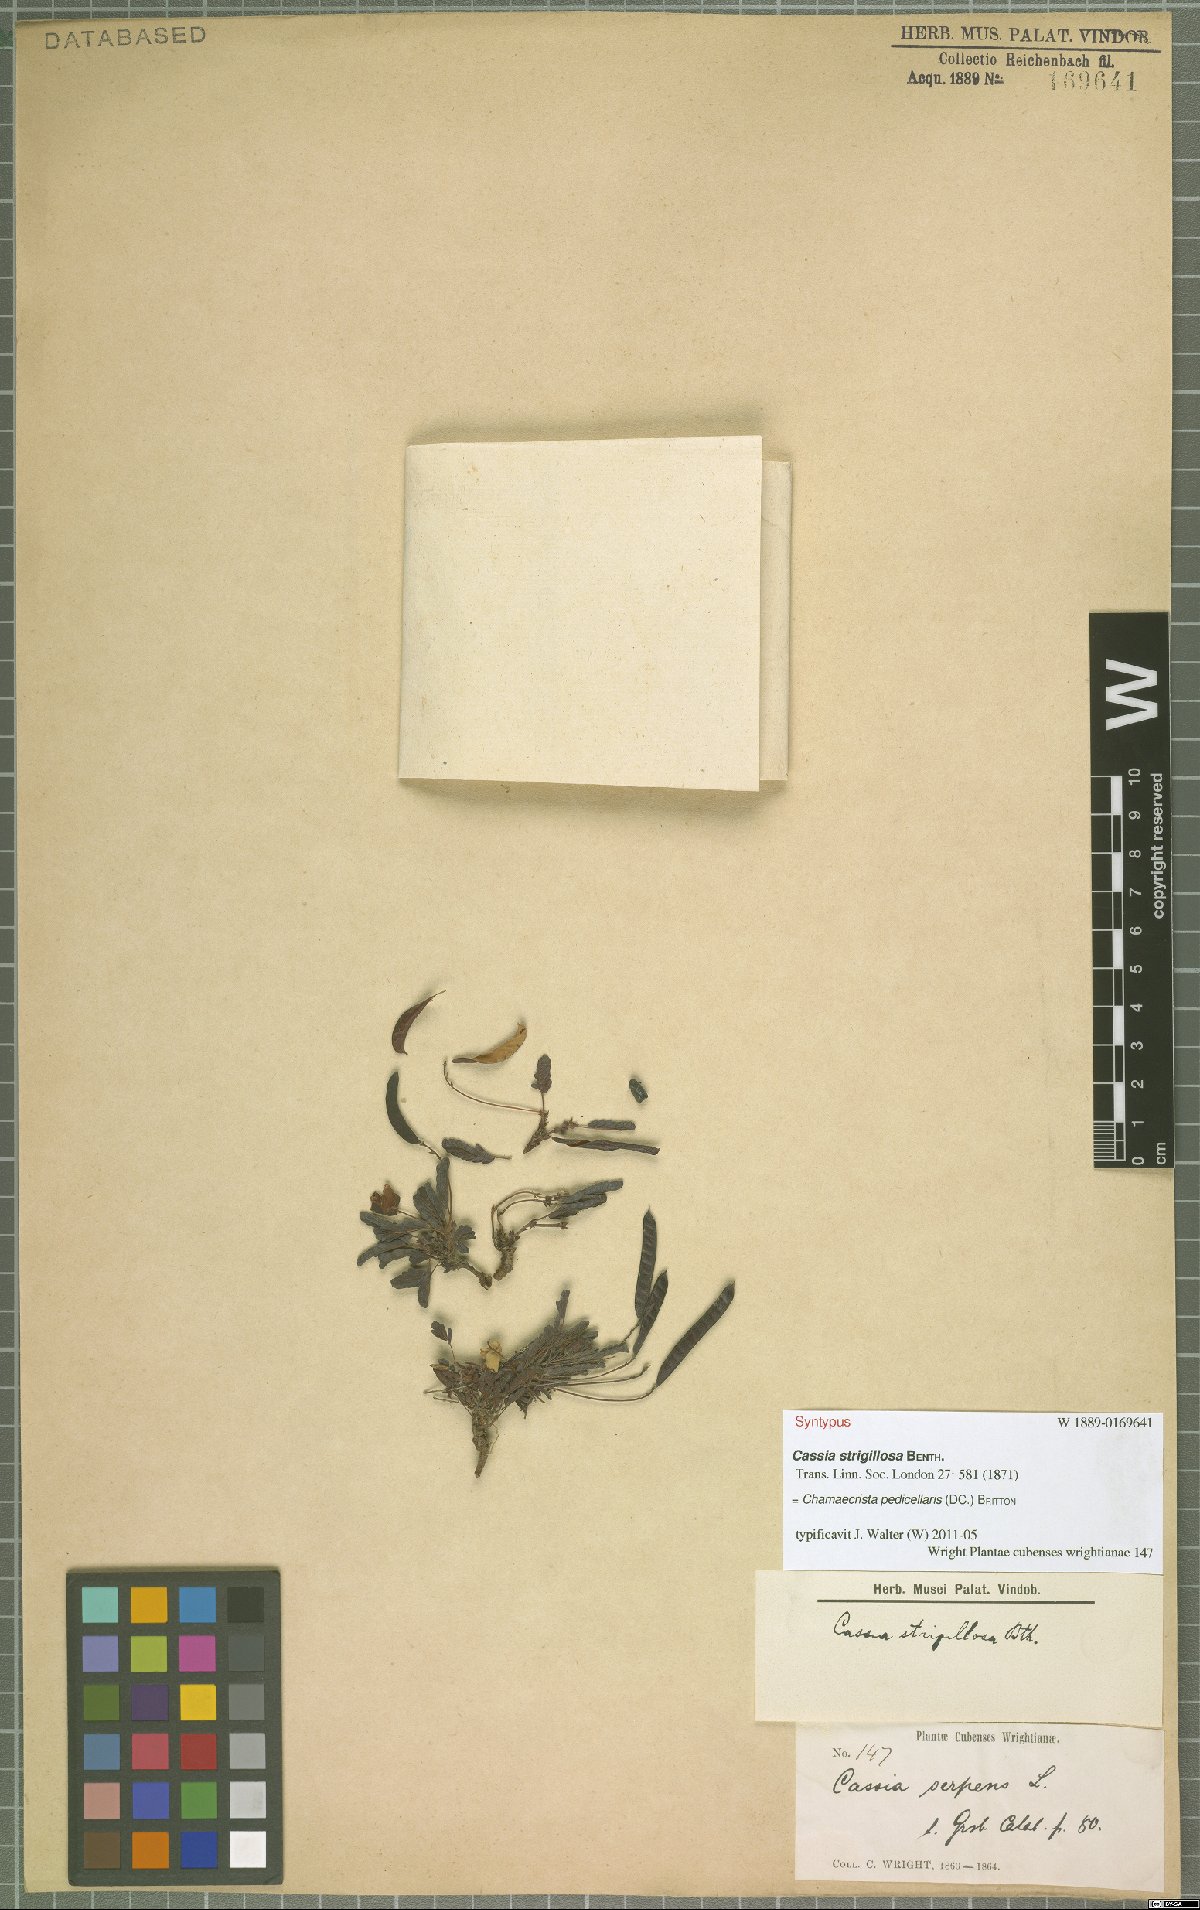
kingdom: Plantae
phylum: Tracheophyta
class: Magnoliopsida
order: Fabales
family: Fabaceae
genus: Chamaecrista
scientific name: Chamaecrista pedicellaris
